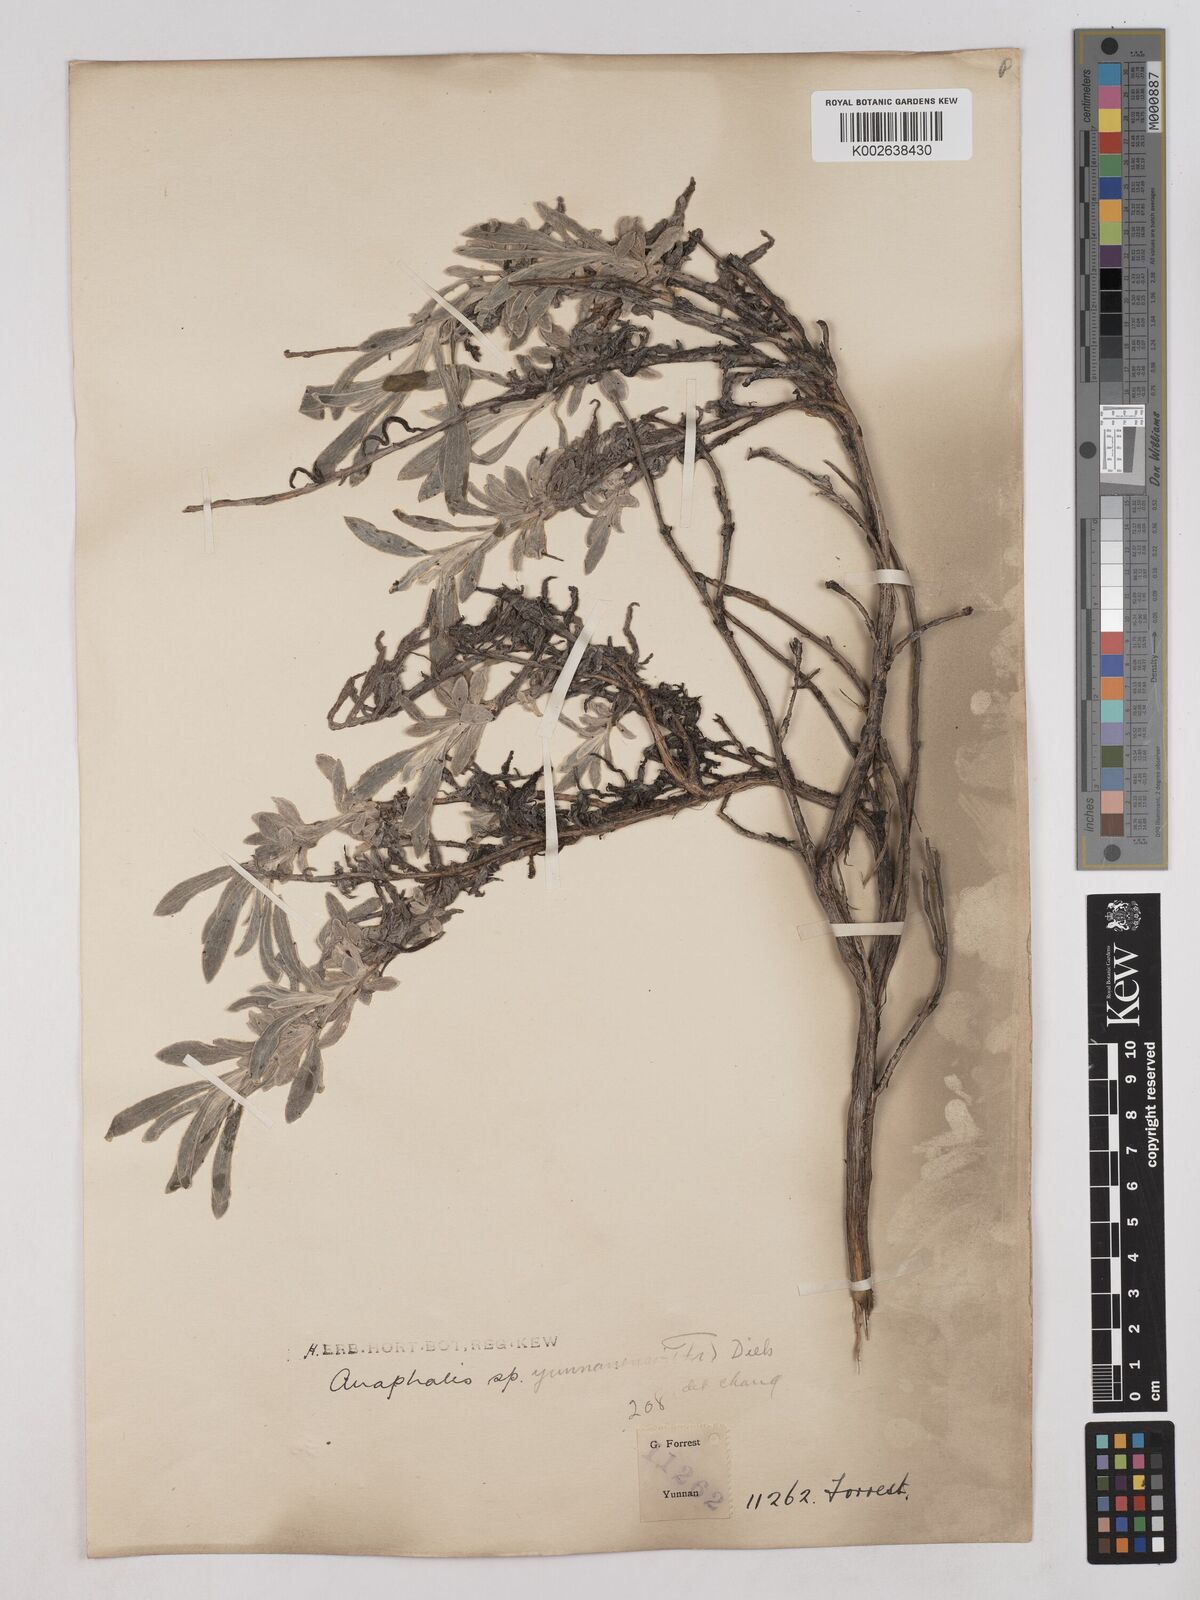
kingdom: Plantae
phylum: Tracheophyta
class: Magnoliopsida
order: Asterales
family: Asteraceae
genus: Anaphalis
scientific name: Anaphalis yunnanensis
